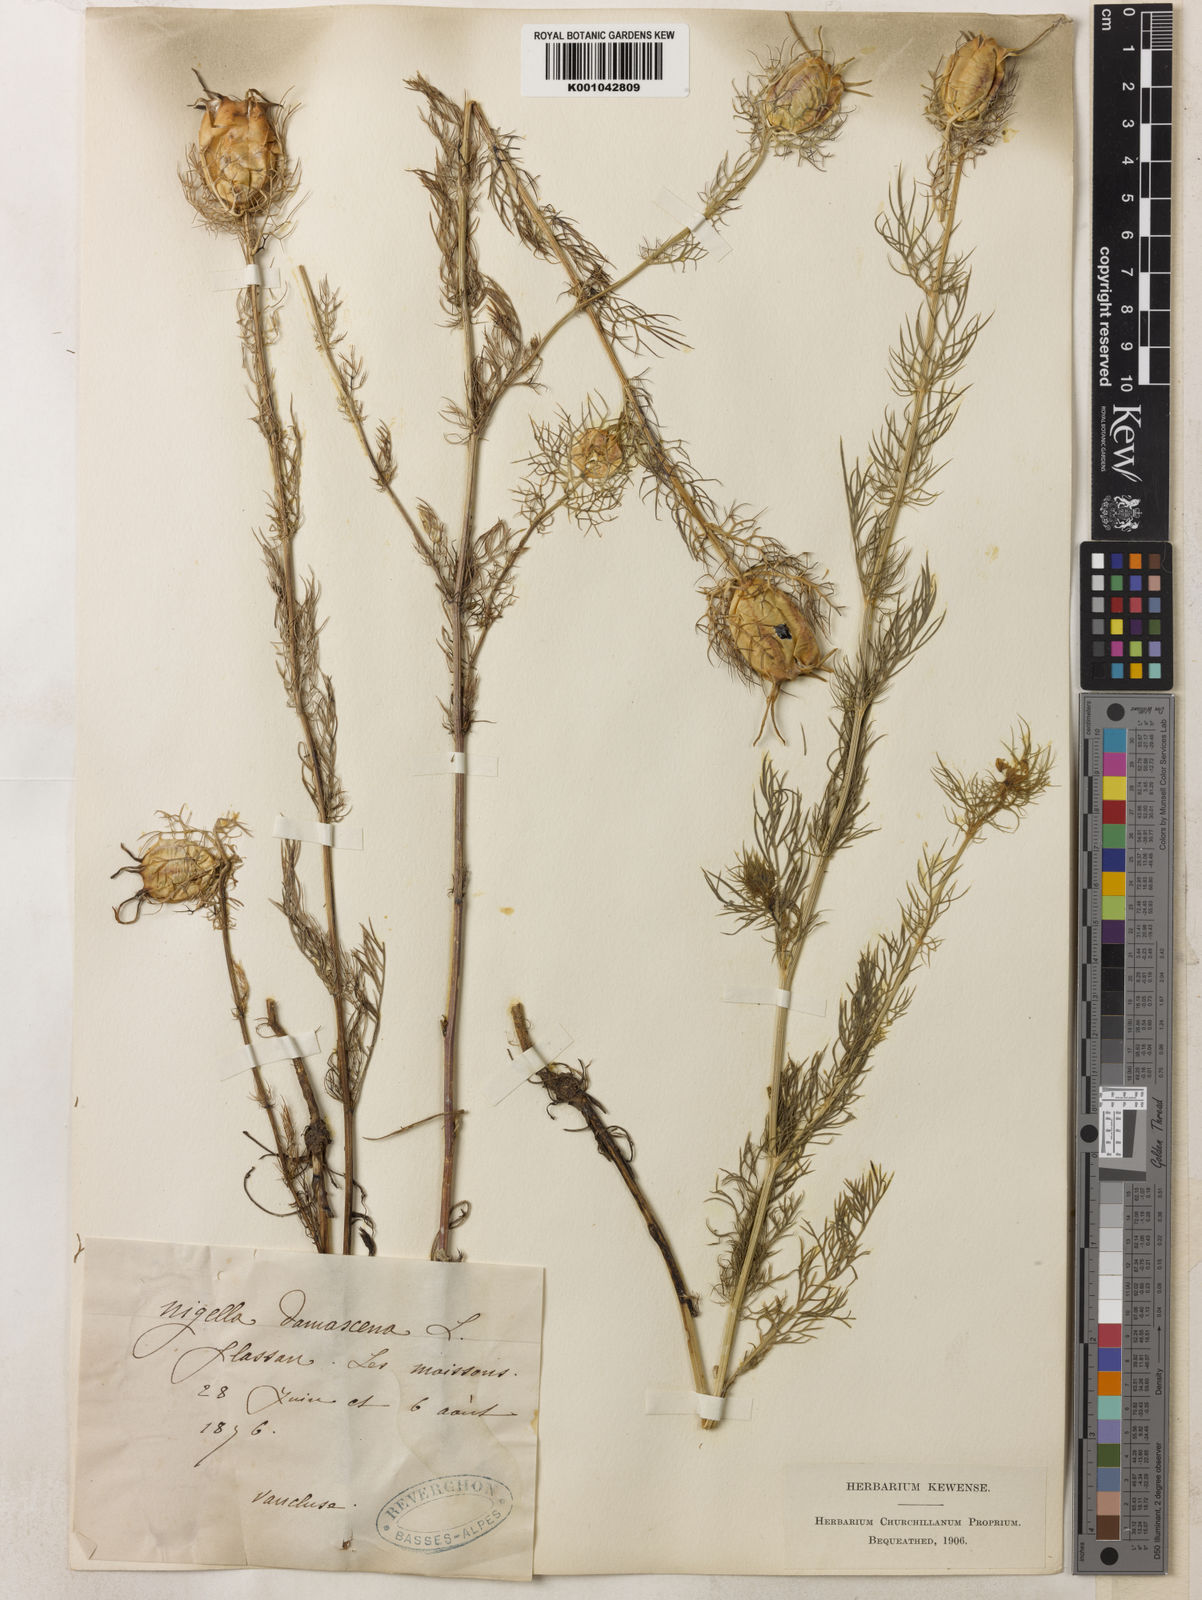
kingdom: Plantae
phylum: Tracheophyta
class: Magnoliopsida
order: Ranunculales
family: Ranunculaceae
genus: Nigella
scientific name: Nigella damascena
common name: Love-in-a-mist
